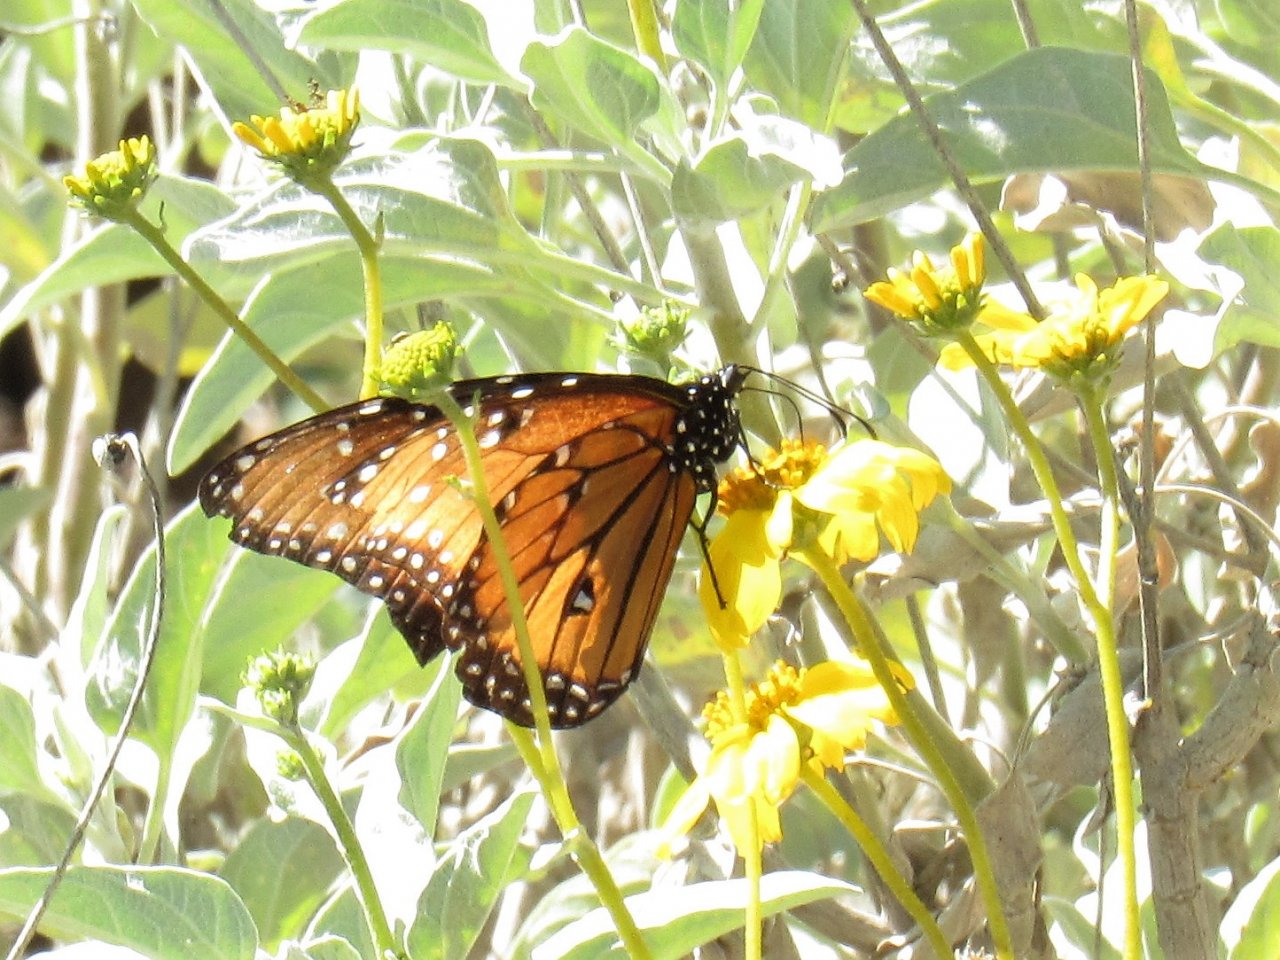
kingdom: Animalia
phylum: Arthropoda
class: Insecta
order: Lepidoptera
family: Nymphalidae
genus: Danaus
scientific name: Danaus gilippus
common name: Queen
